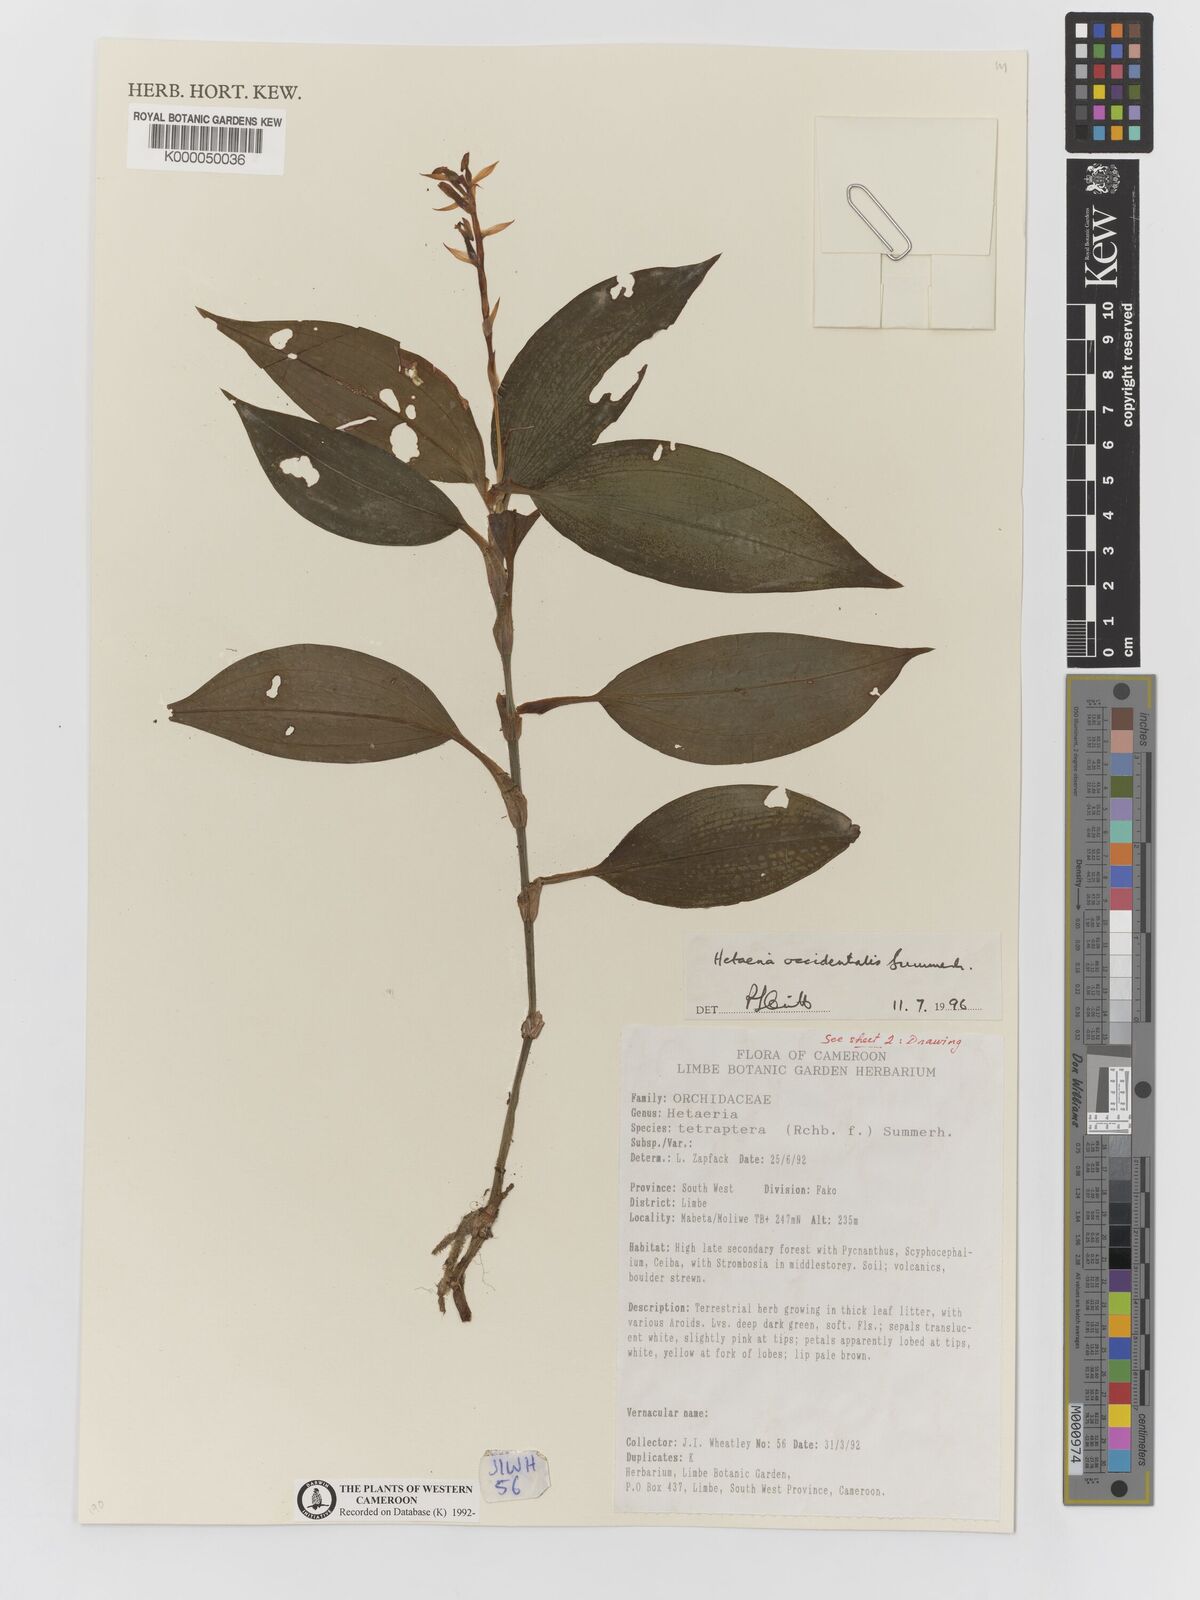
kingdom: Plantae
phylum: Tracheophyta
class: Liliopsida
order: Asparagales
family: Orchidaceae
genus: Hetaeria
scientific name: Hetaeria occidentalis
